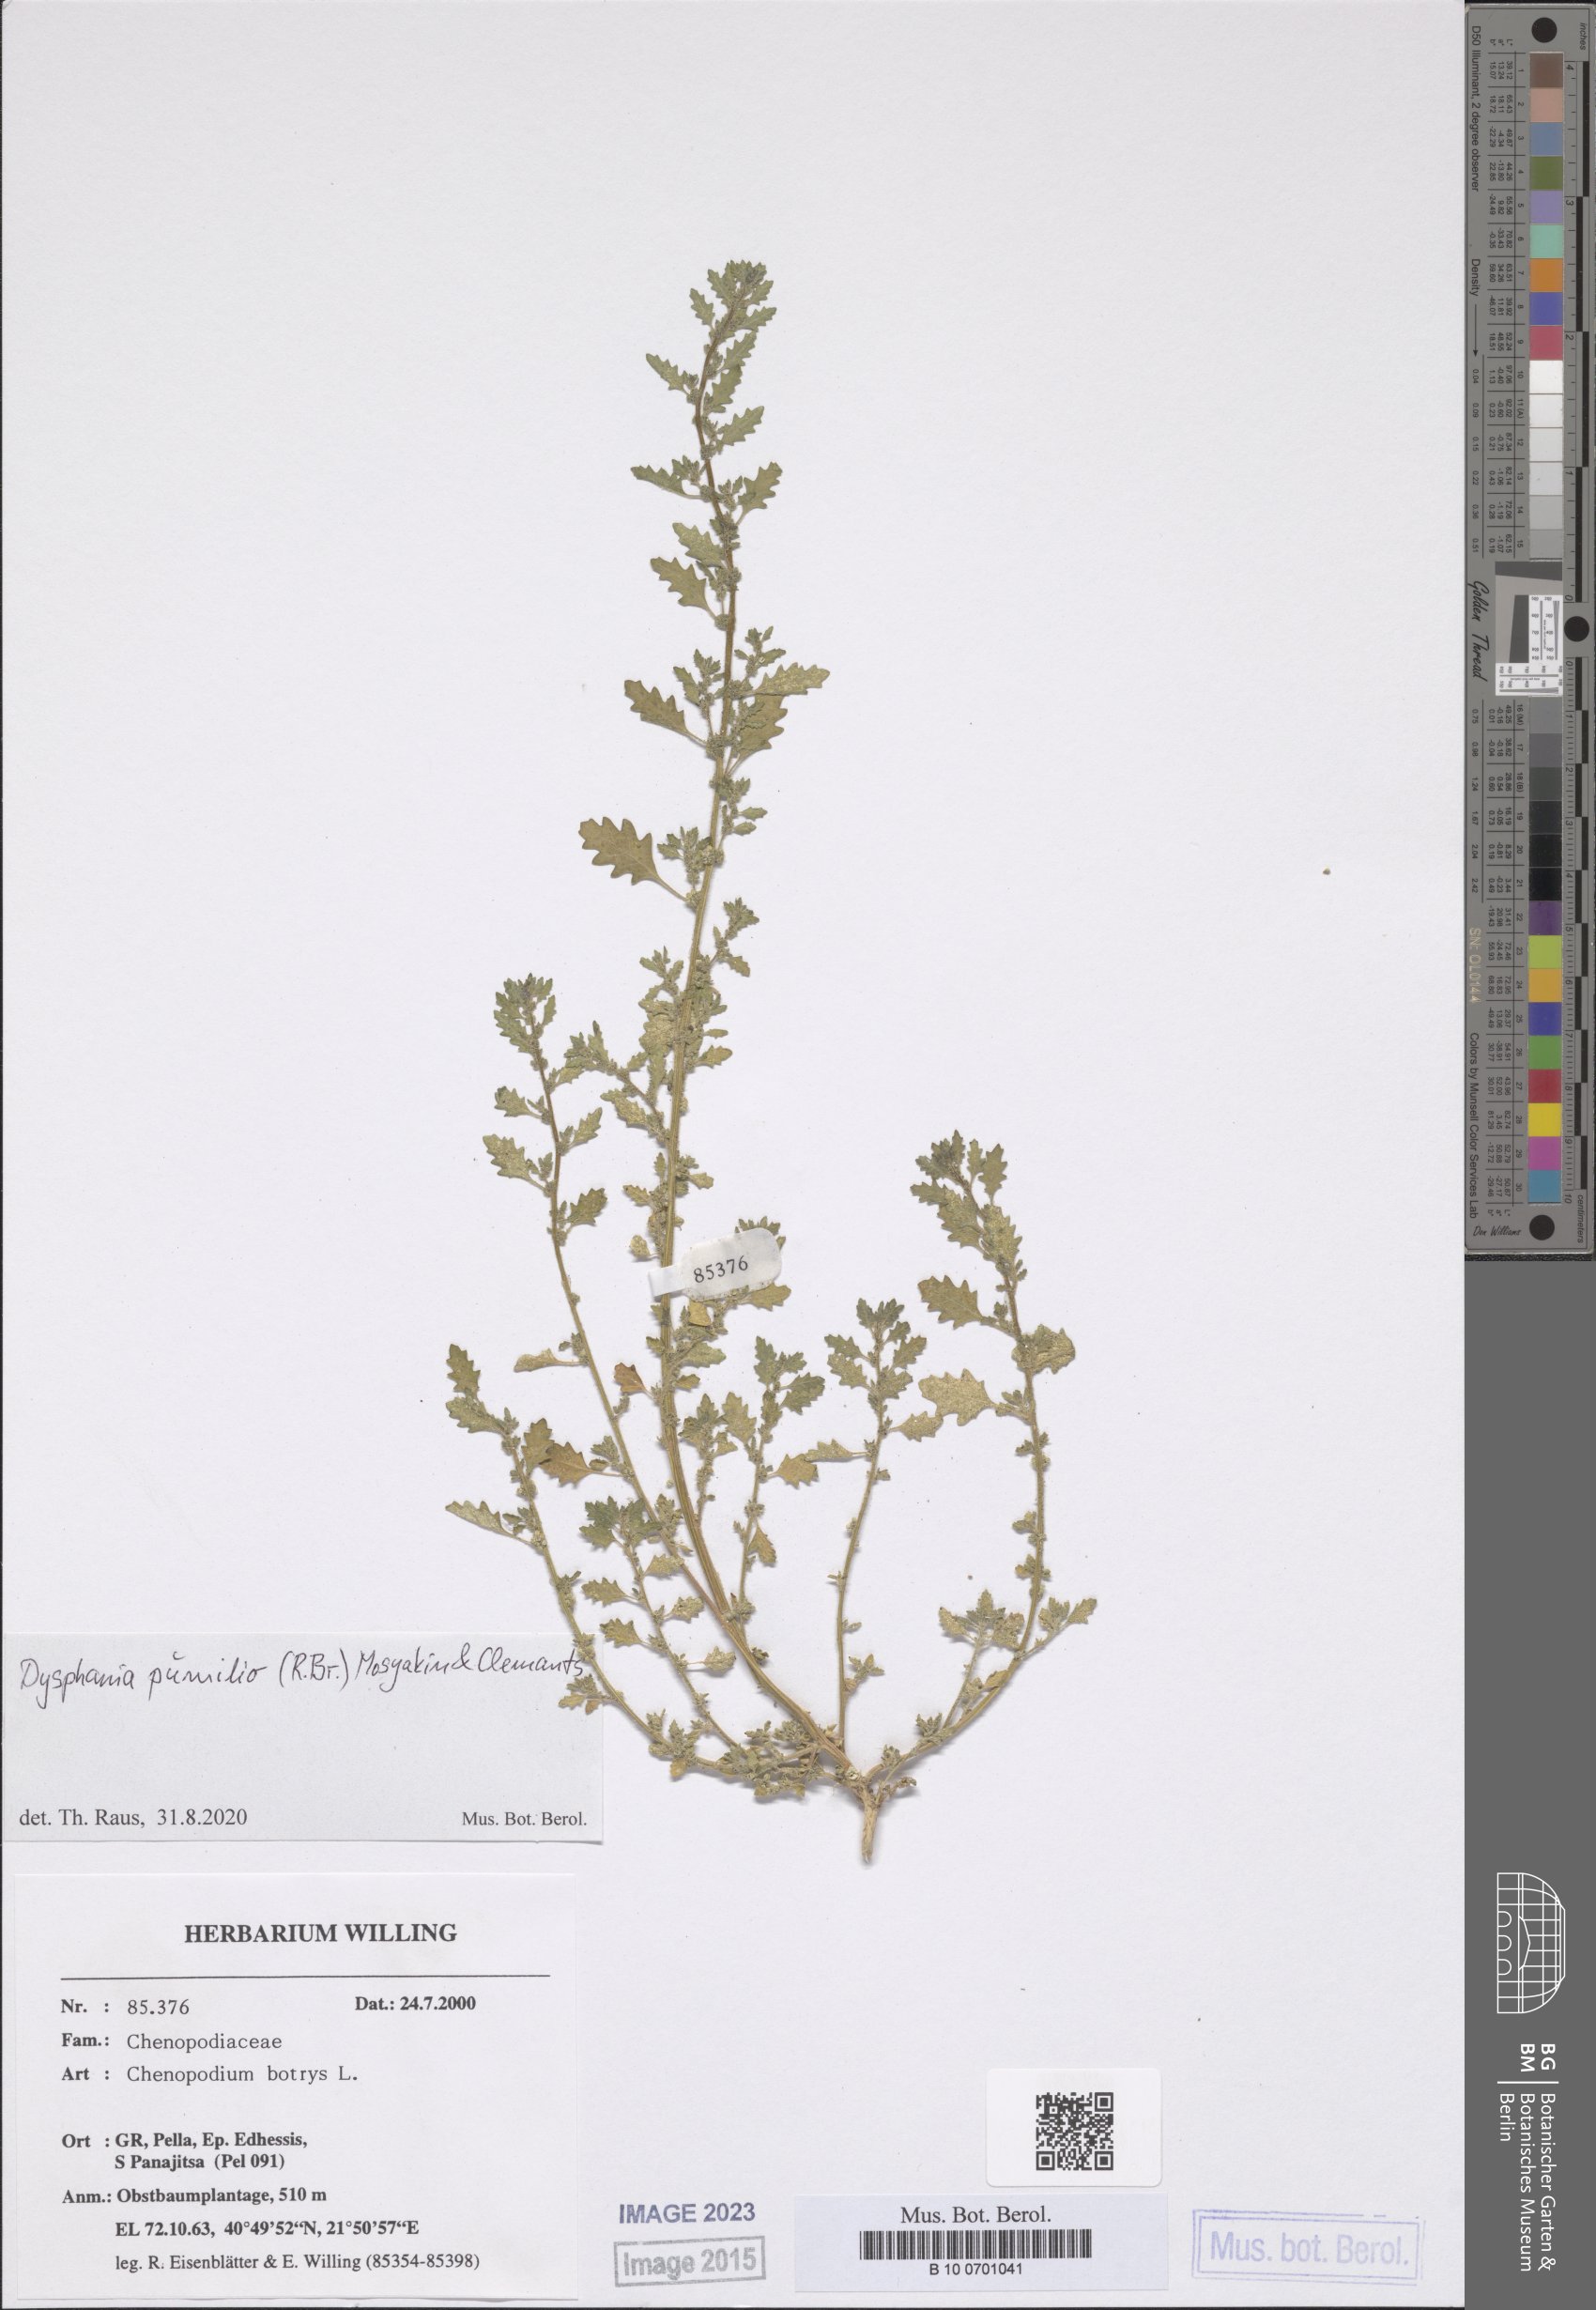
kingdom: Plantae
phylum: Tracheophyta
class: Magnoliopsida
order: Caryophyllales
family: Amaranthaceae
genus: Dysphania
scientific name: Dysphania pumilio
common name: Clammy goosefoot
